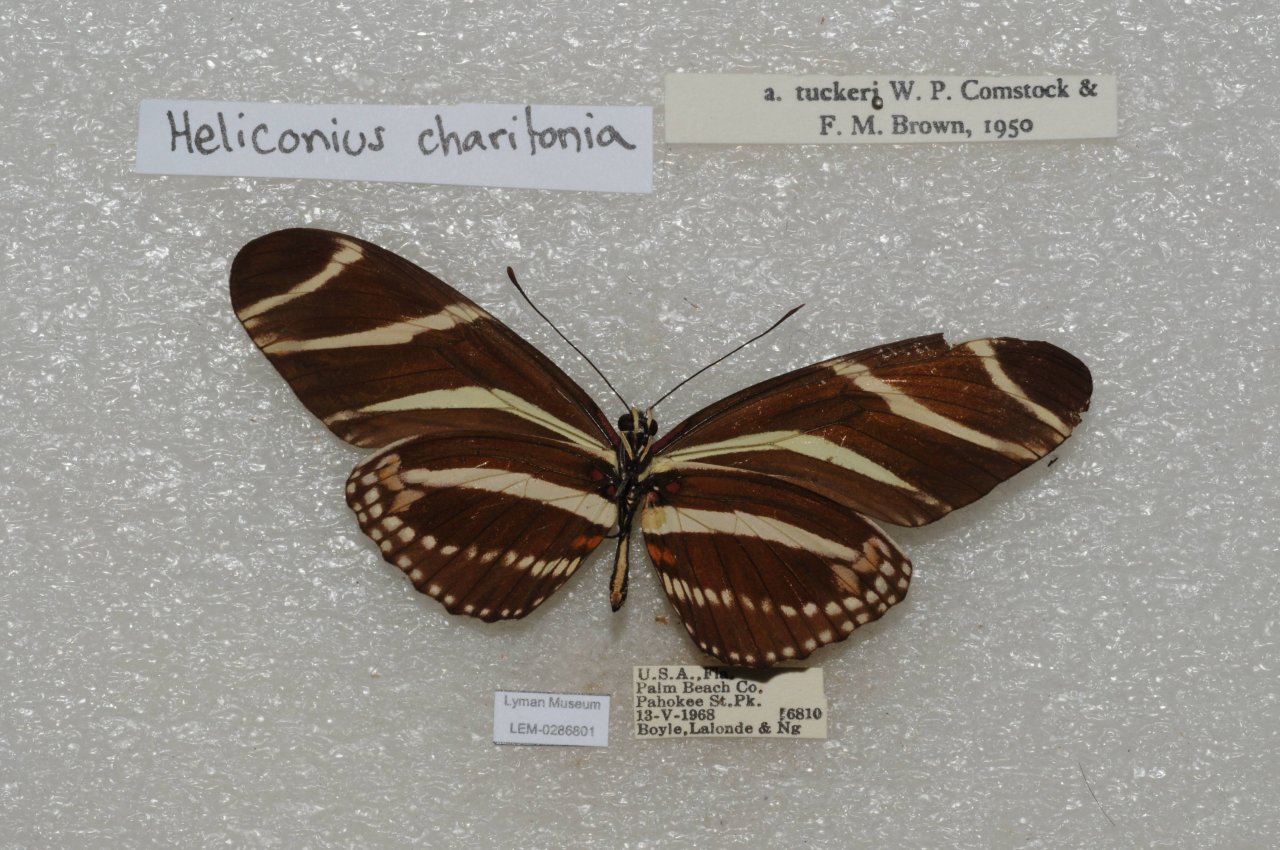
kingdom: Animalia
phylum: Arthropoda
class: Insecta
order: Lepidoptera
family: Nymphalidae
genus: Heliconius
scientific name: Heliconius charithonia
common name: Zebra Longwing
